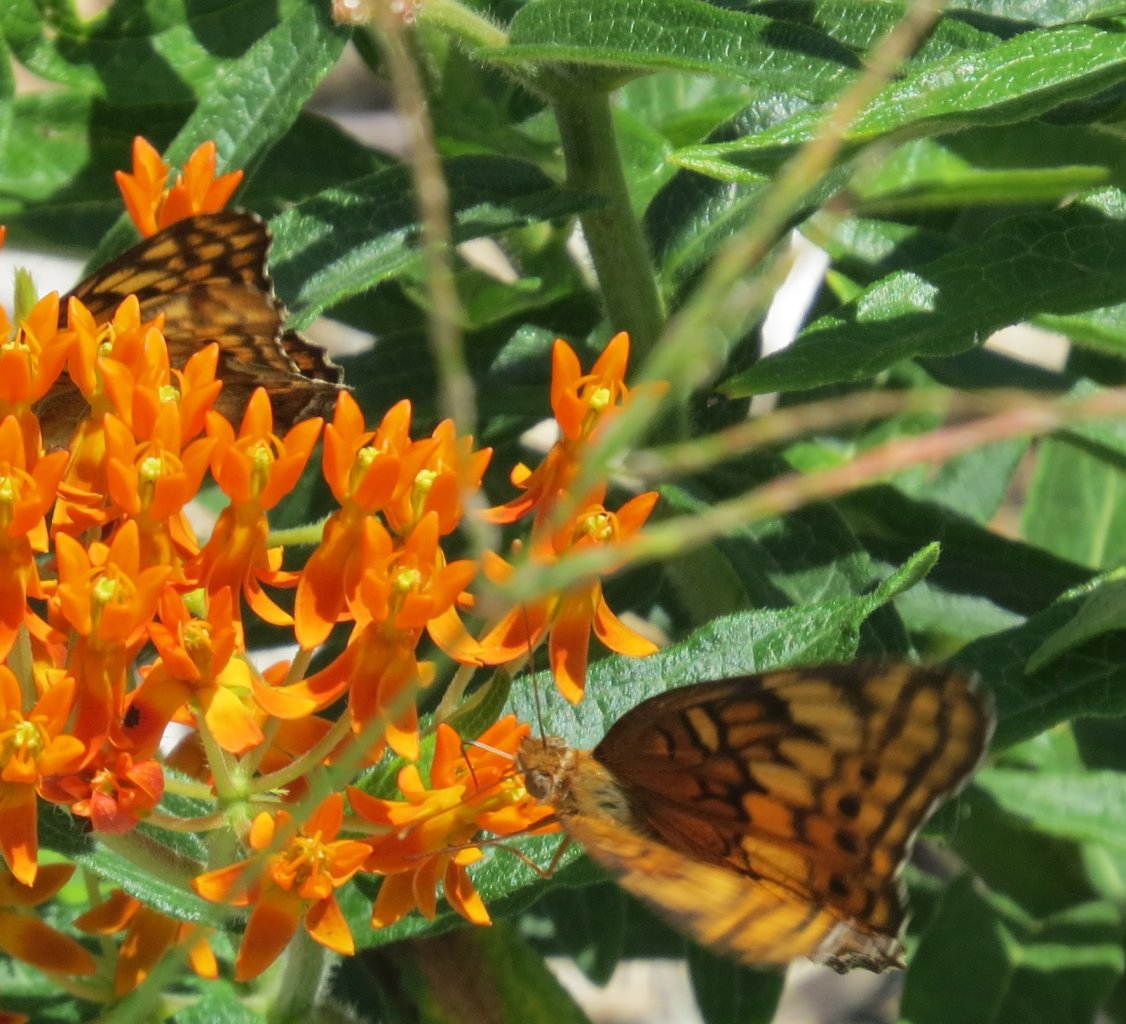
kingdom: Animalia
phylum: Arthropoda
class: Insecta
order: Lepidoptera
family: Nymphalidae
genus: Euptoieta
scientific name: Euptoieta claudia
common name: Variegated Fritillary
